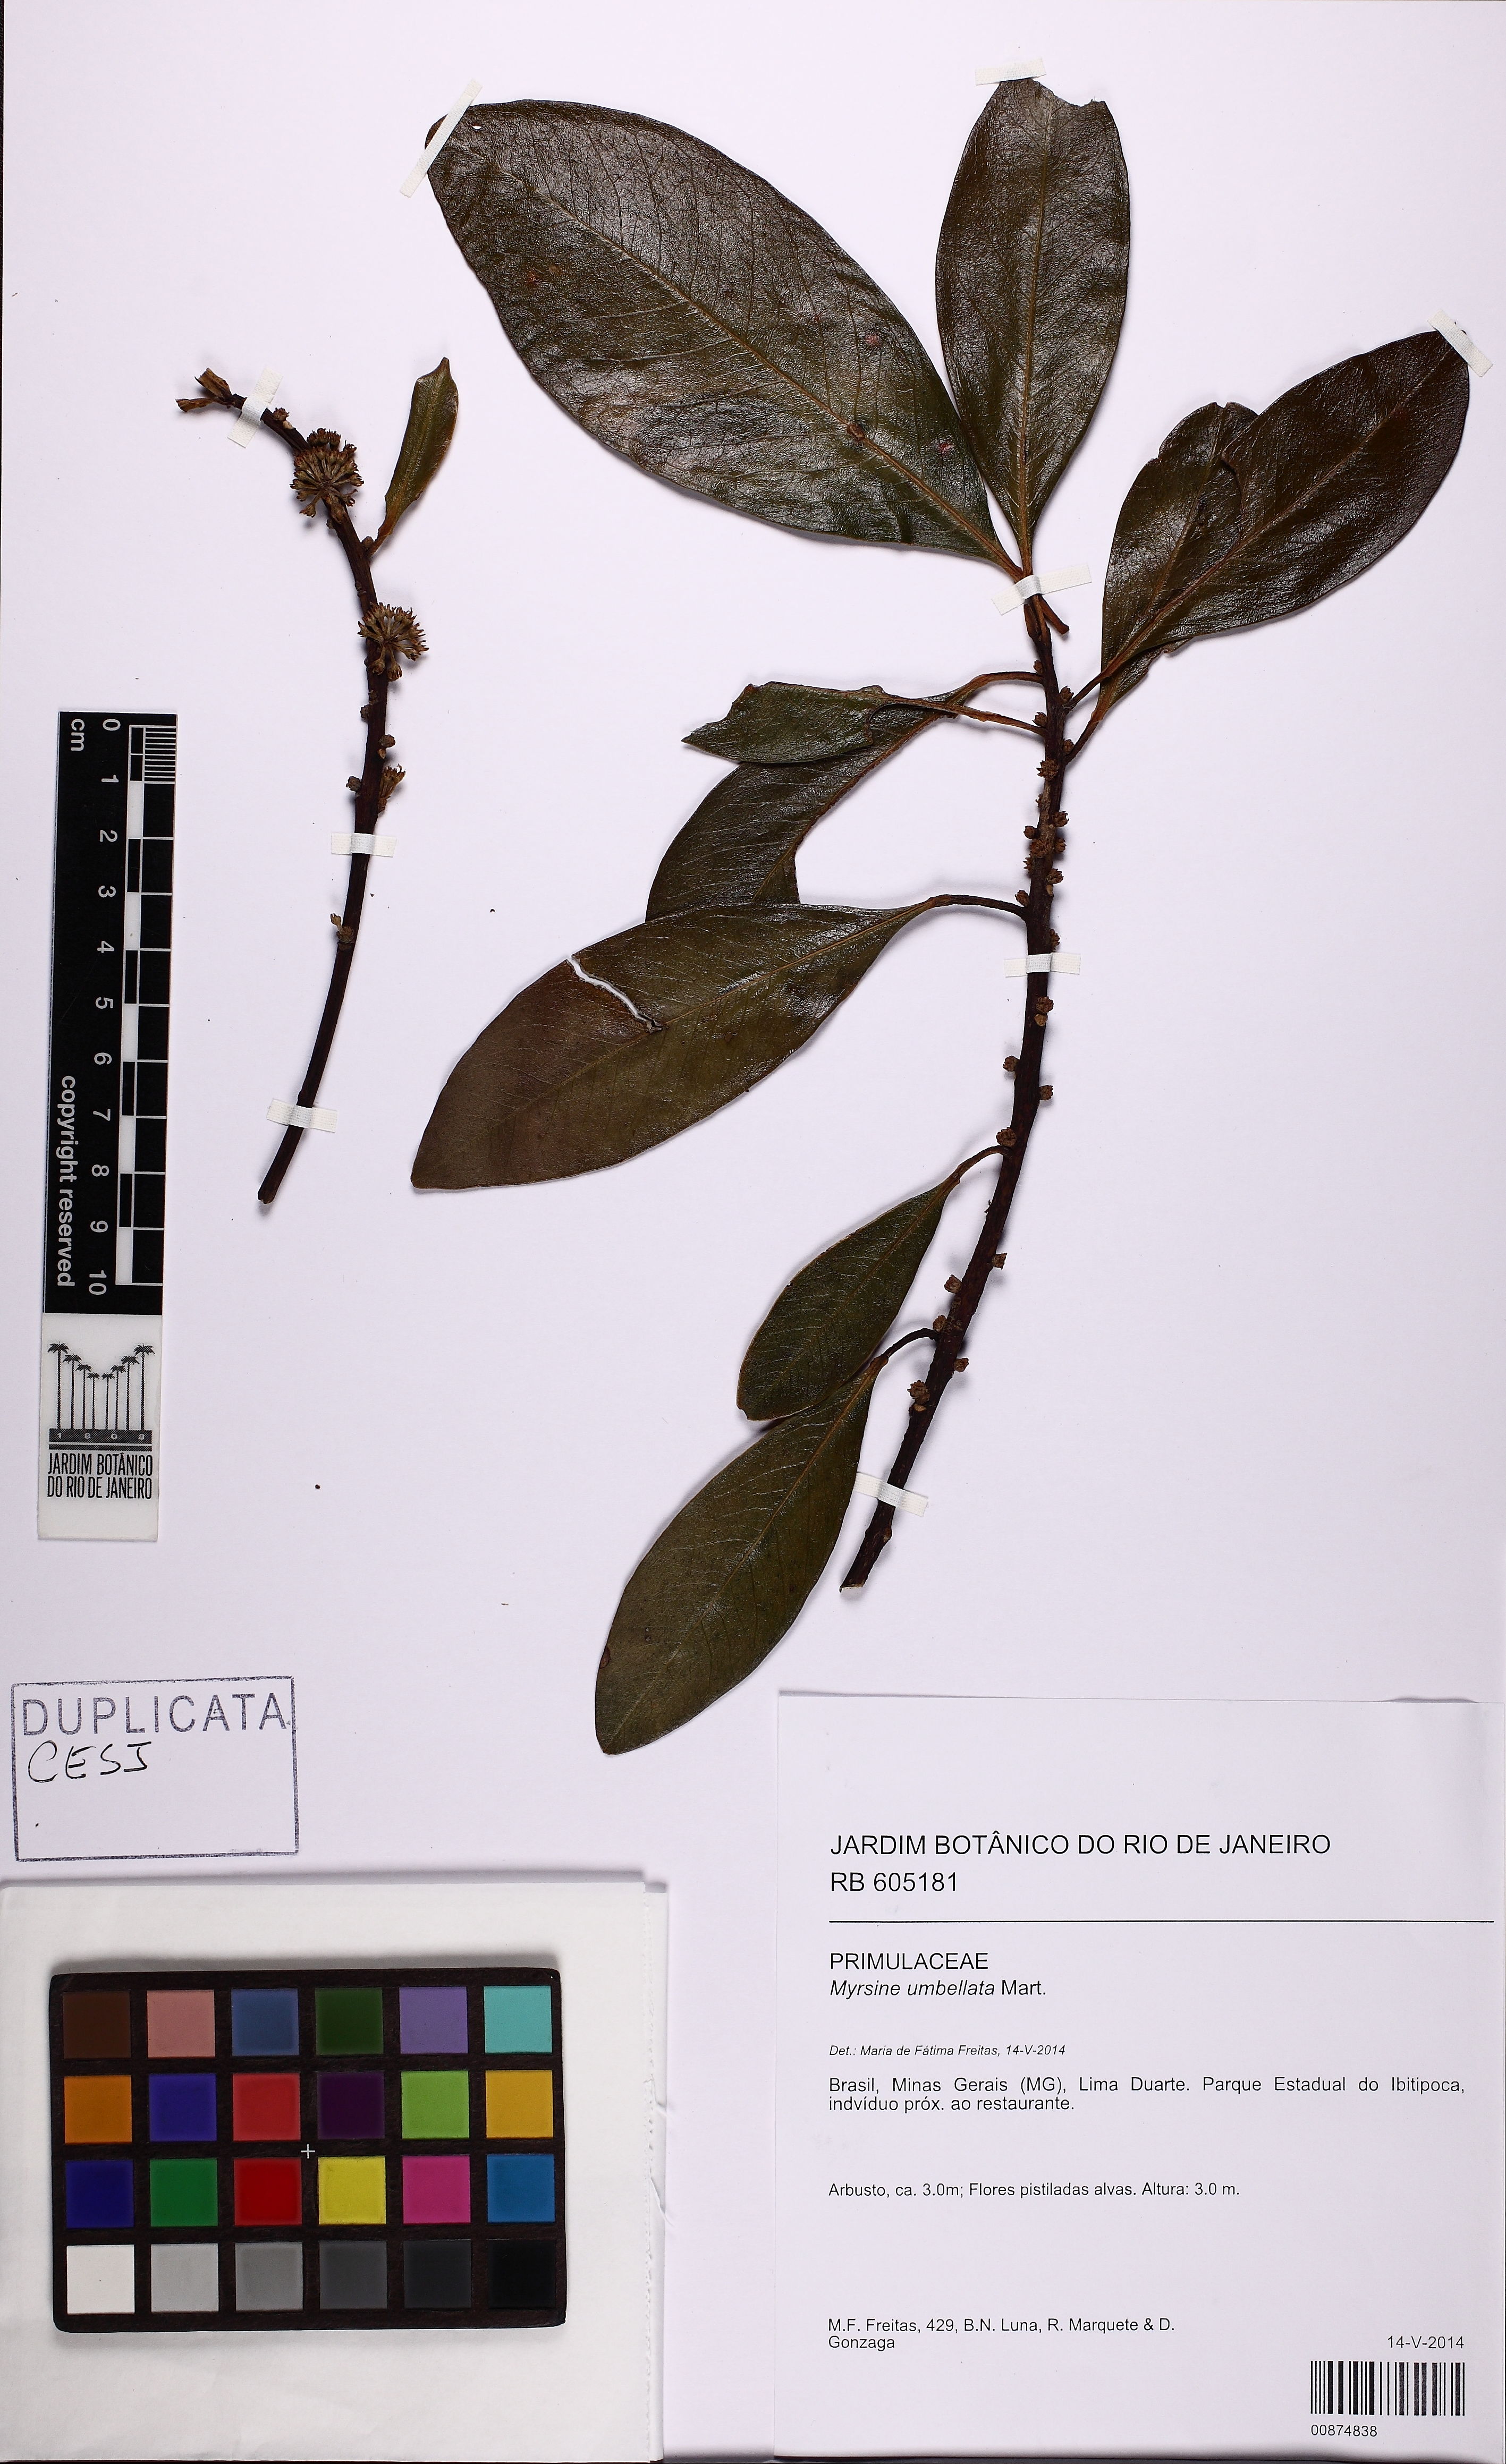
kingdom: Plantae
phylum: Tracheophyta
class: Magnoliopsida
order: Ericales
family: Primulaceae
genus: Myrsine
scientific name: Myrsine umbellata
